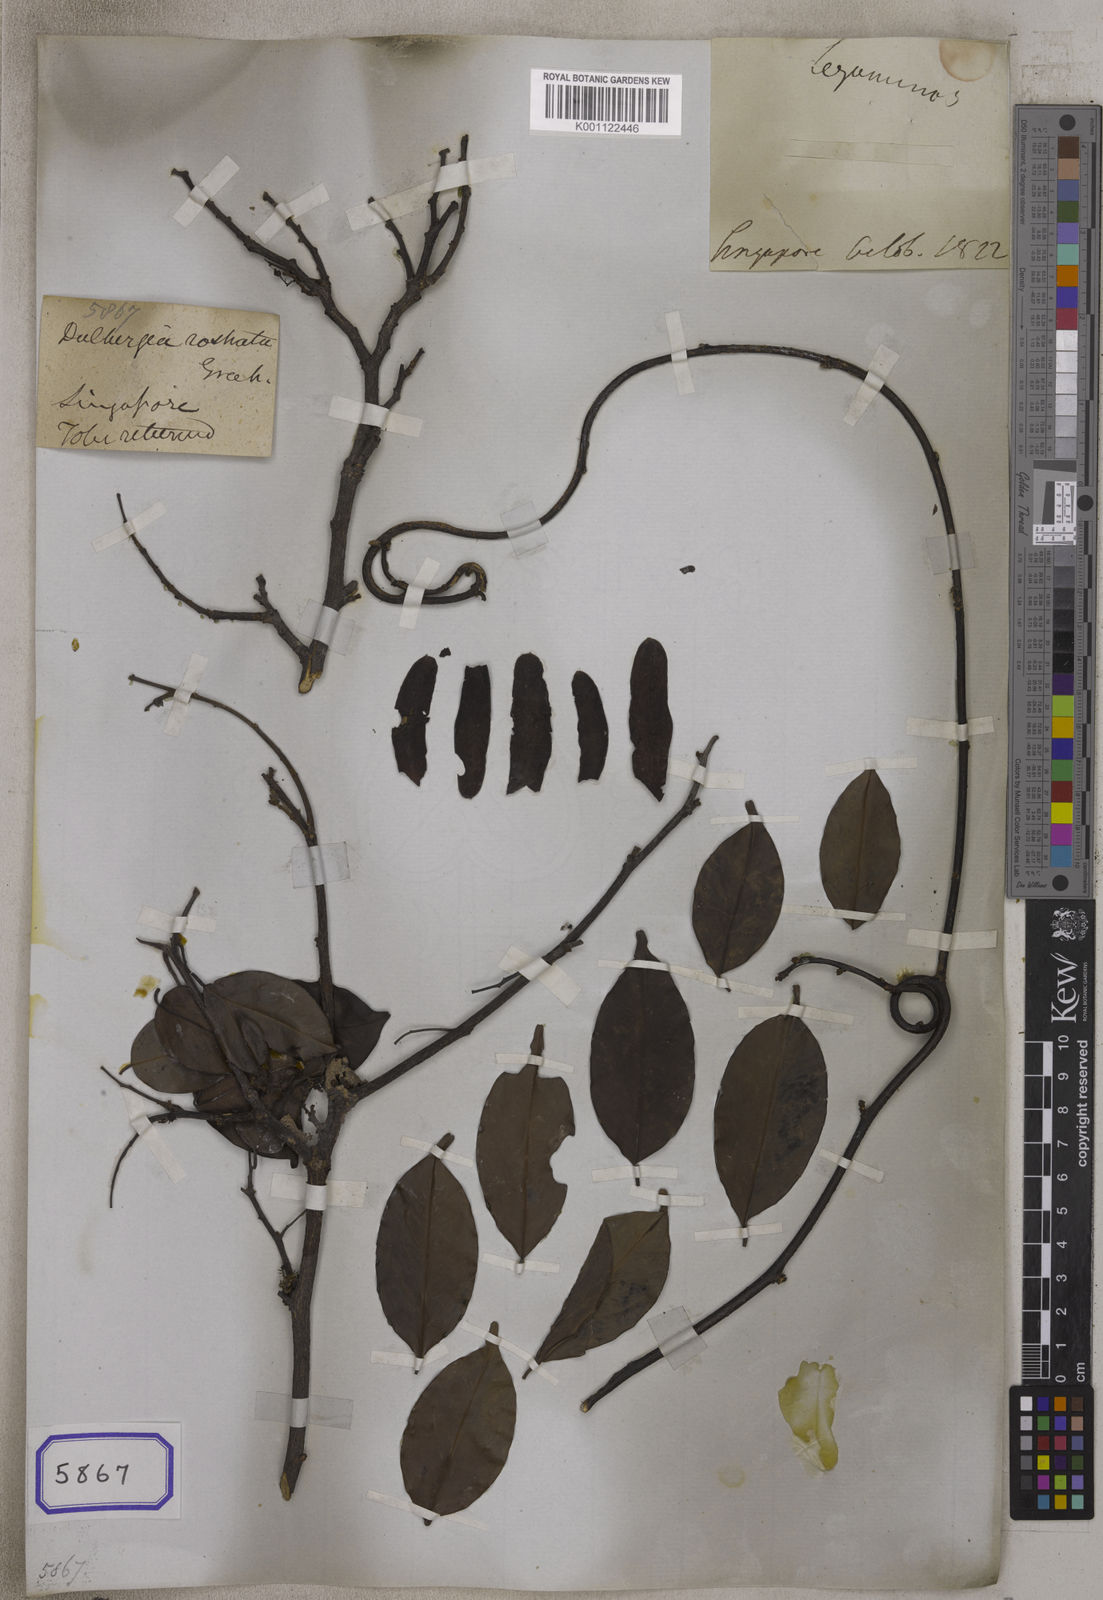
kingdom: Plantae
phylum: Tracheophyta
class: Magnoliopsida
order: Fabales
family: Fabaceae
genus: Dalbergia
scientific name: Dalbergia
